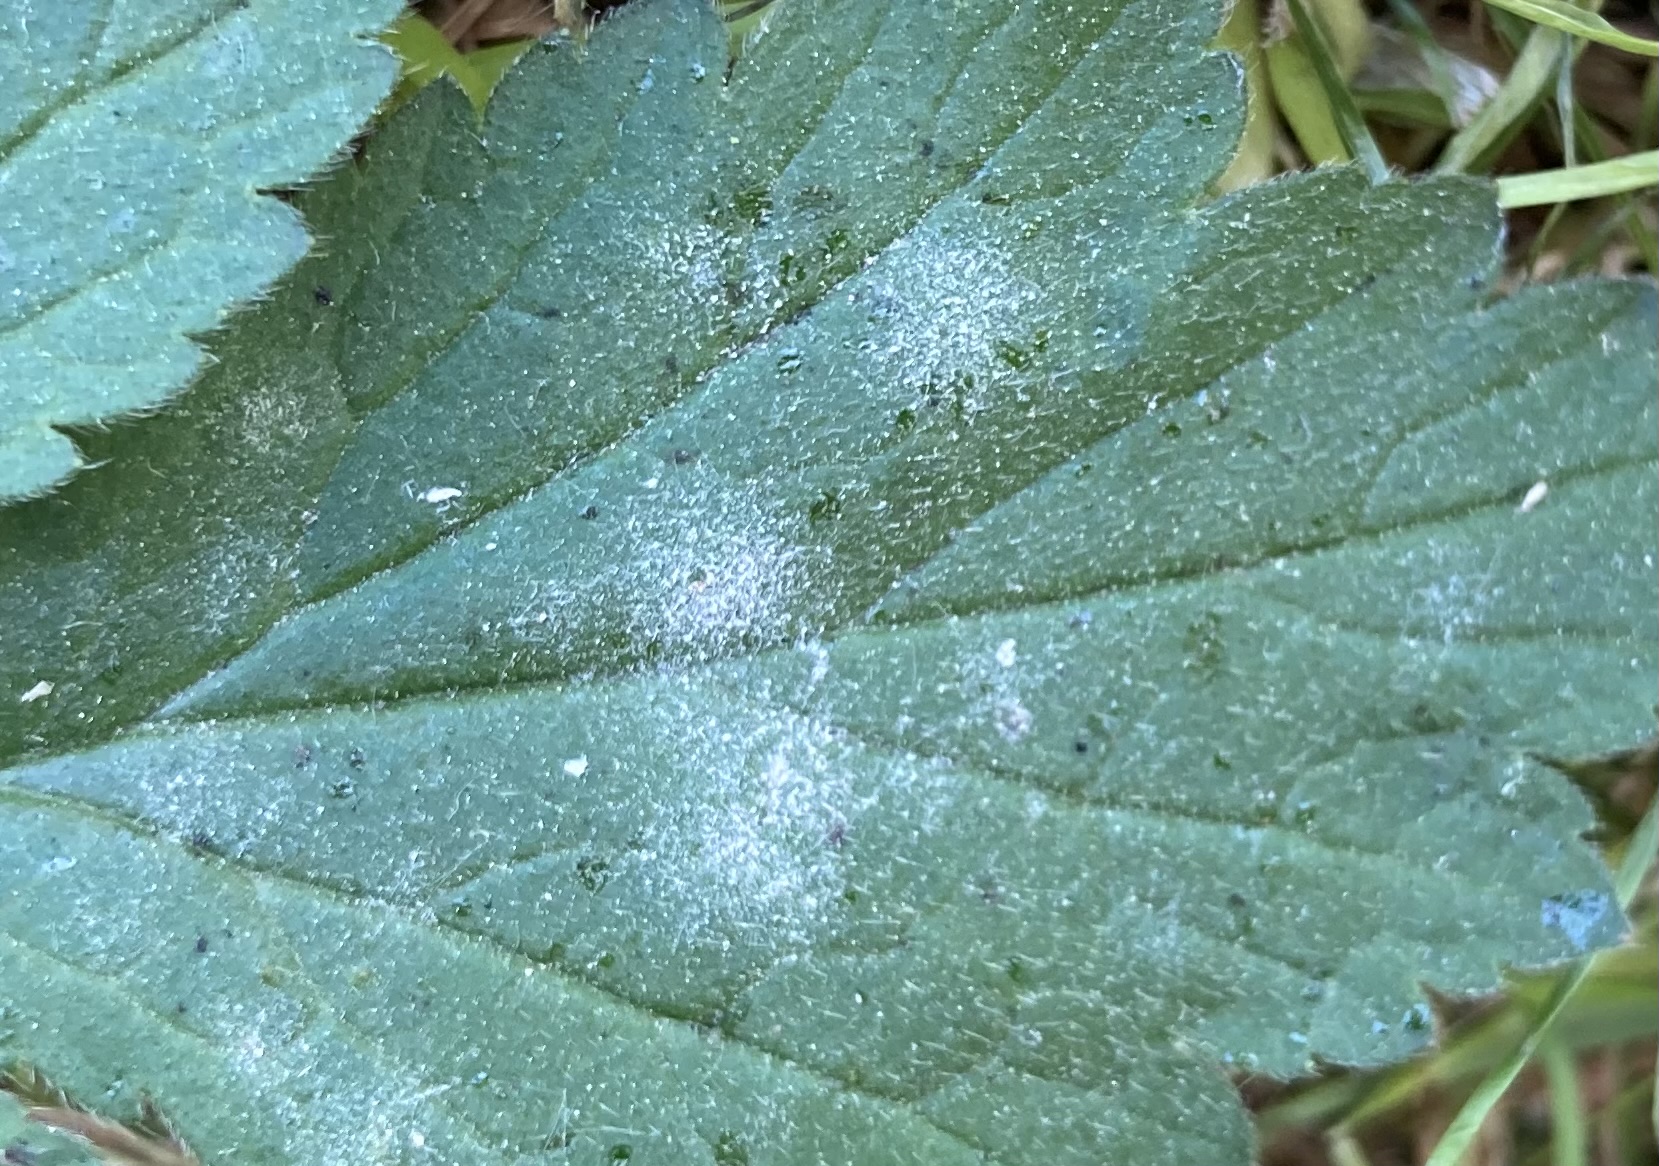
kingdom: Fungi
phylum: Ascomycota
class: Leotiomycetes
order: Helotiales
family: Erysiphaceae
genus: Podosphaera
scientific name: Podosphaera aphanis
